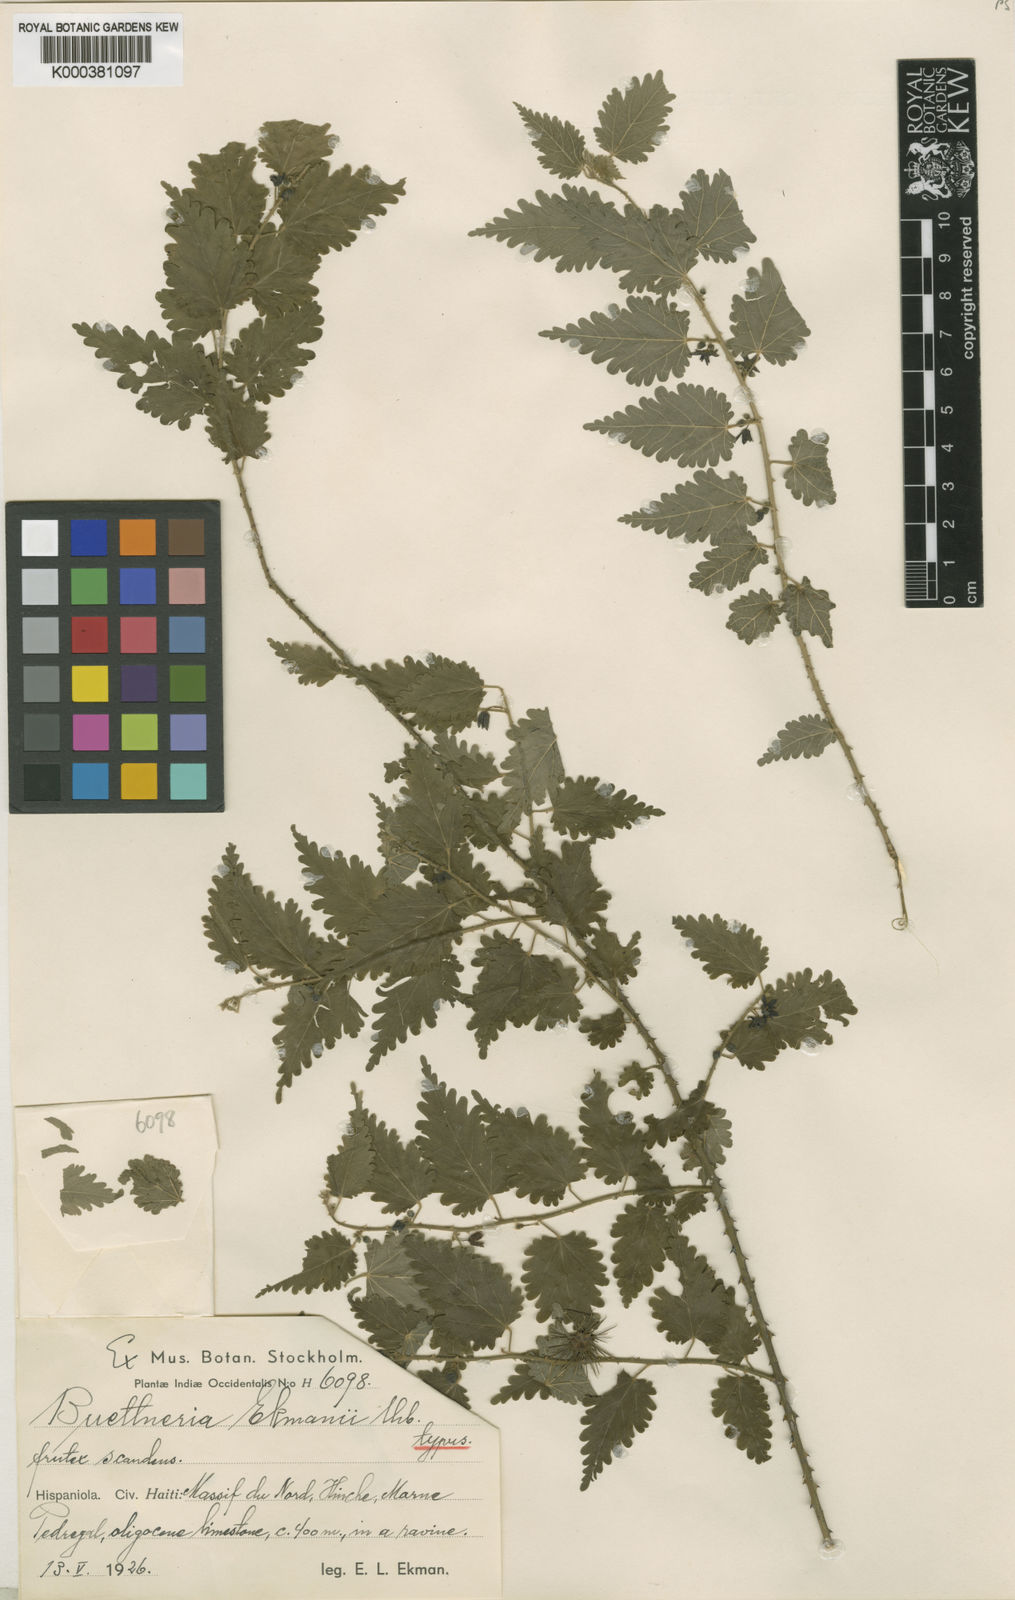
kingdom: Plantae
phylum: Tracheophyta
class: Magnoliopsida
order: Malvales
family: Malvaceae
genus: Byttneria
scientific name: Byttneria ekmanii
